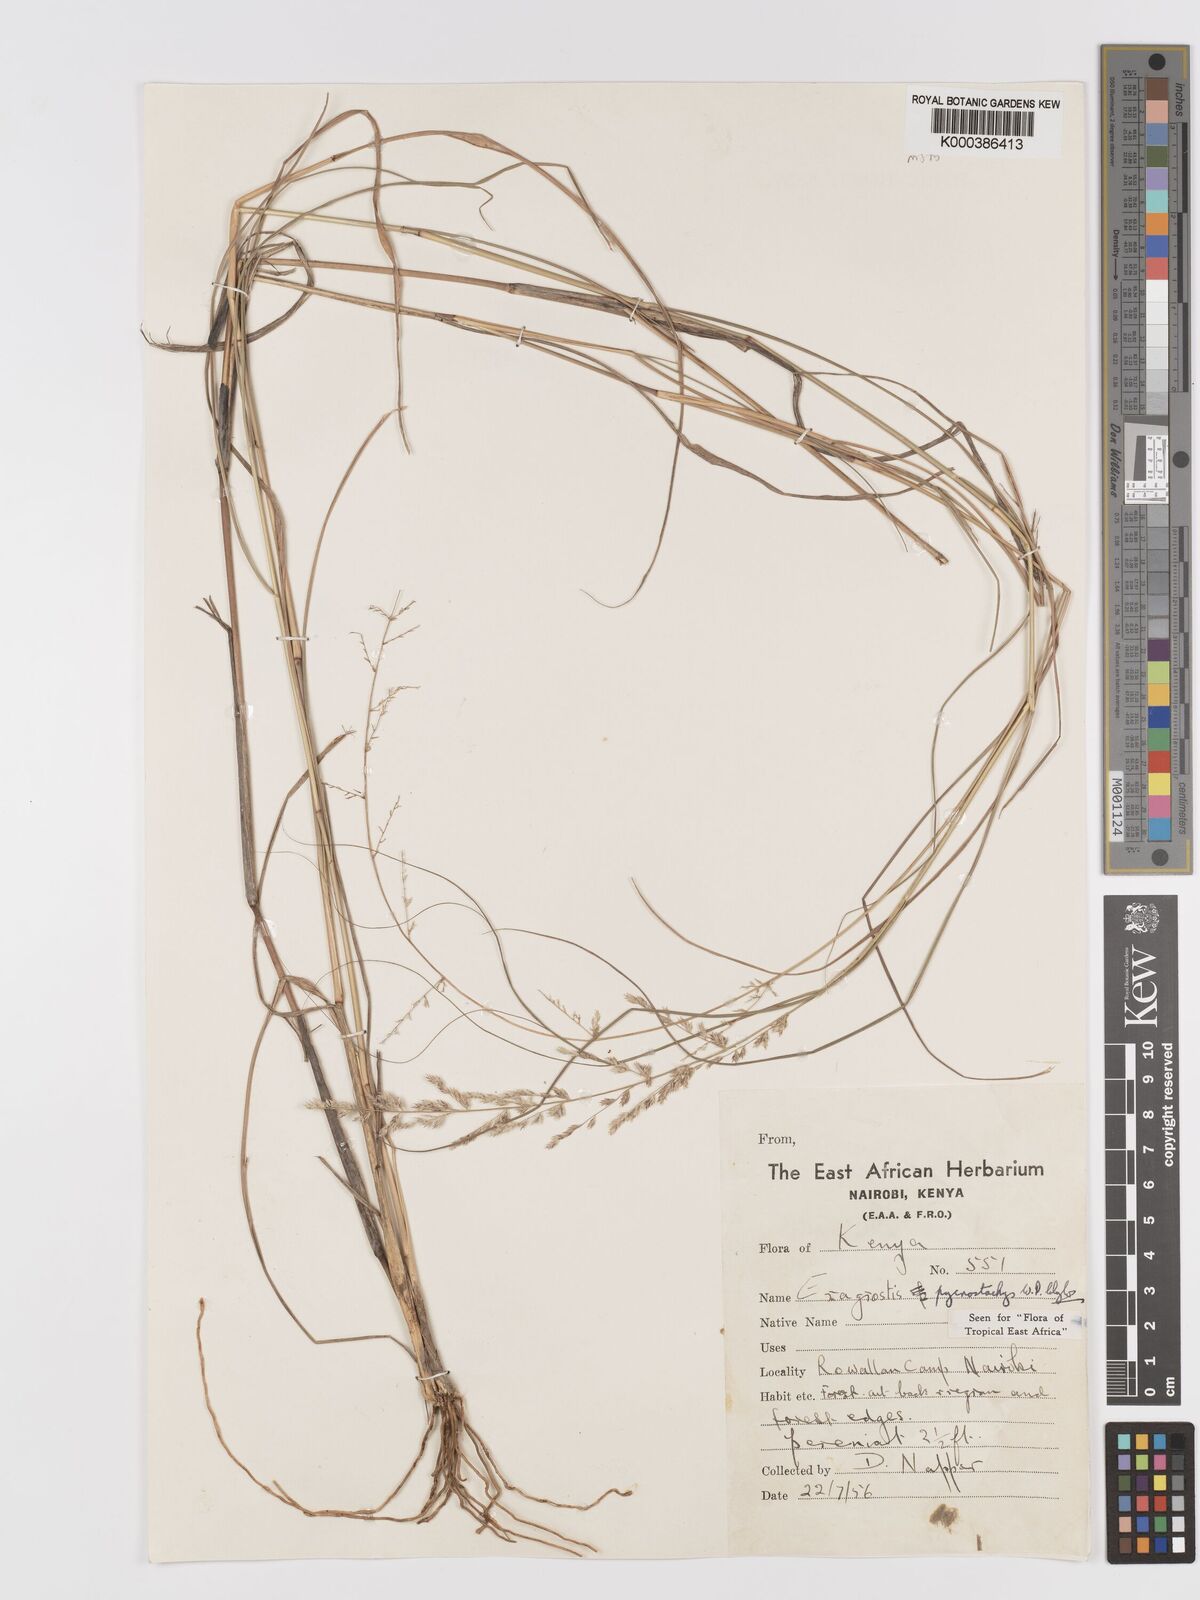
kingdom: Plantae
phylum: Tracheophyta
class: Liliopsida
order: Poales
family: Poaceae
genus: Eragrostis
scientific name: Eragrostis pycnostachys
